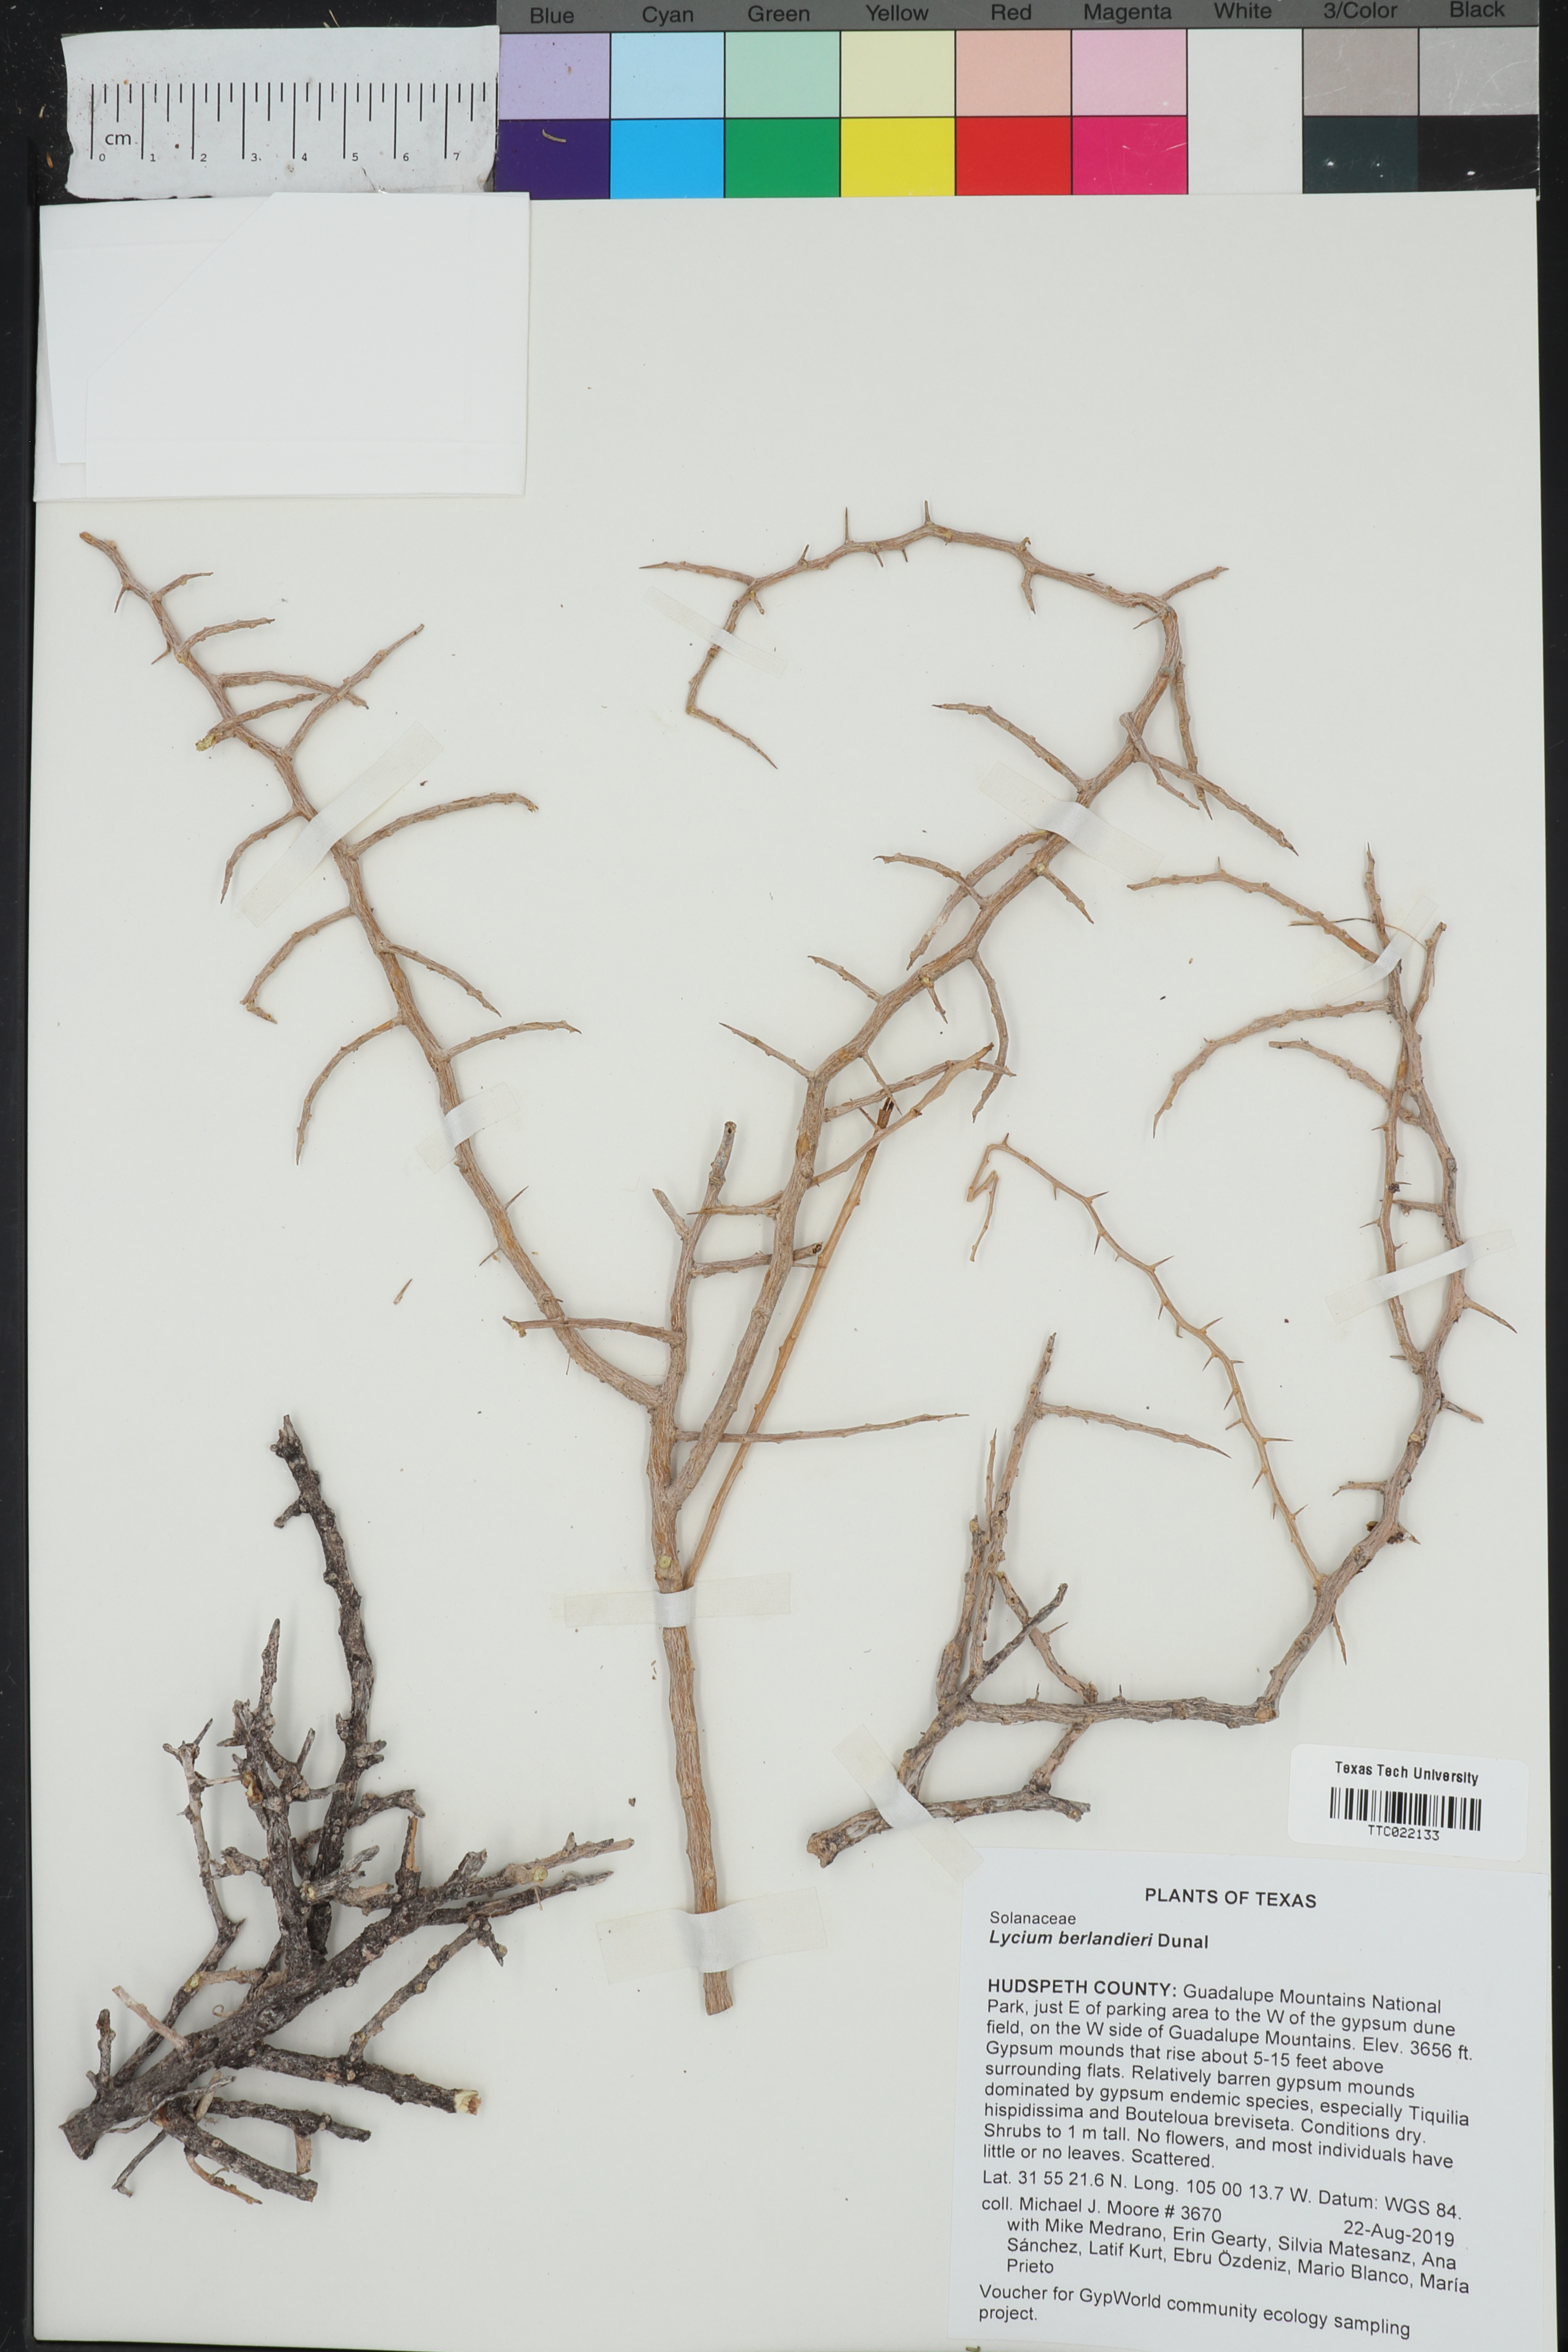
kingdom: Plantae
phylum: Tracheophyta
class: Magnoliopsida
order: Solanales
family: Solanaceae
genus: Lycium
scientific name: Lycium berlandieri
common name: Berlandier wolfberry
